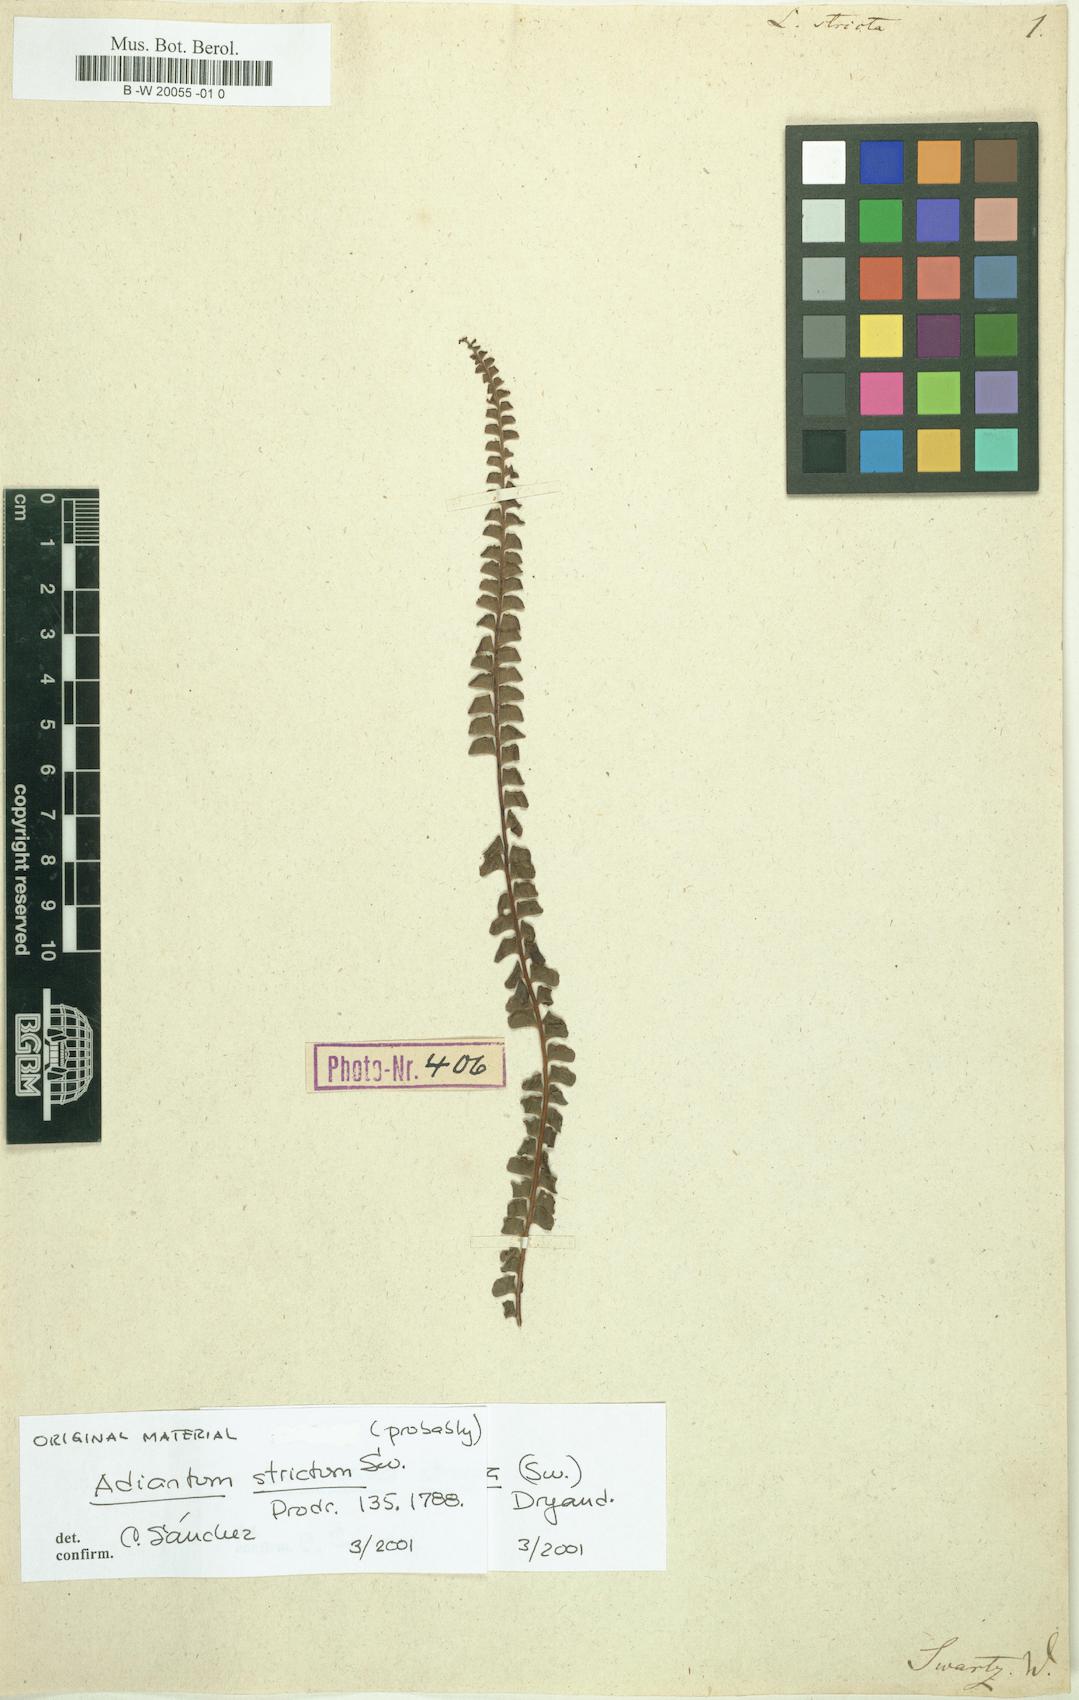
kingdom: Plantae
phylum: Tracheophyta
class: Polypodiopsida
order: Polypodiales
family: Lindsaeaceae
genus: Lindsaea
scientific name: Lindsaea stricta
